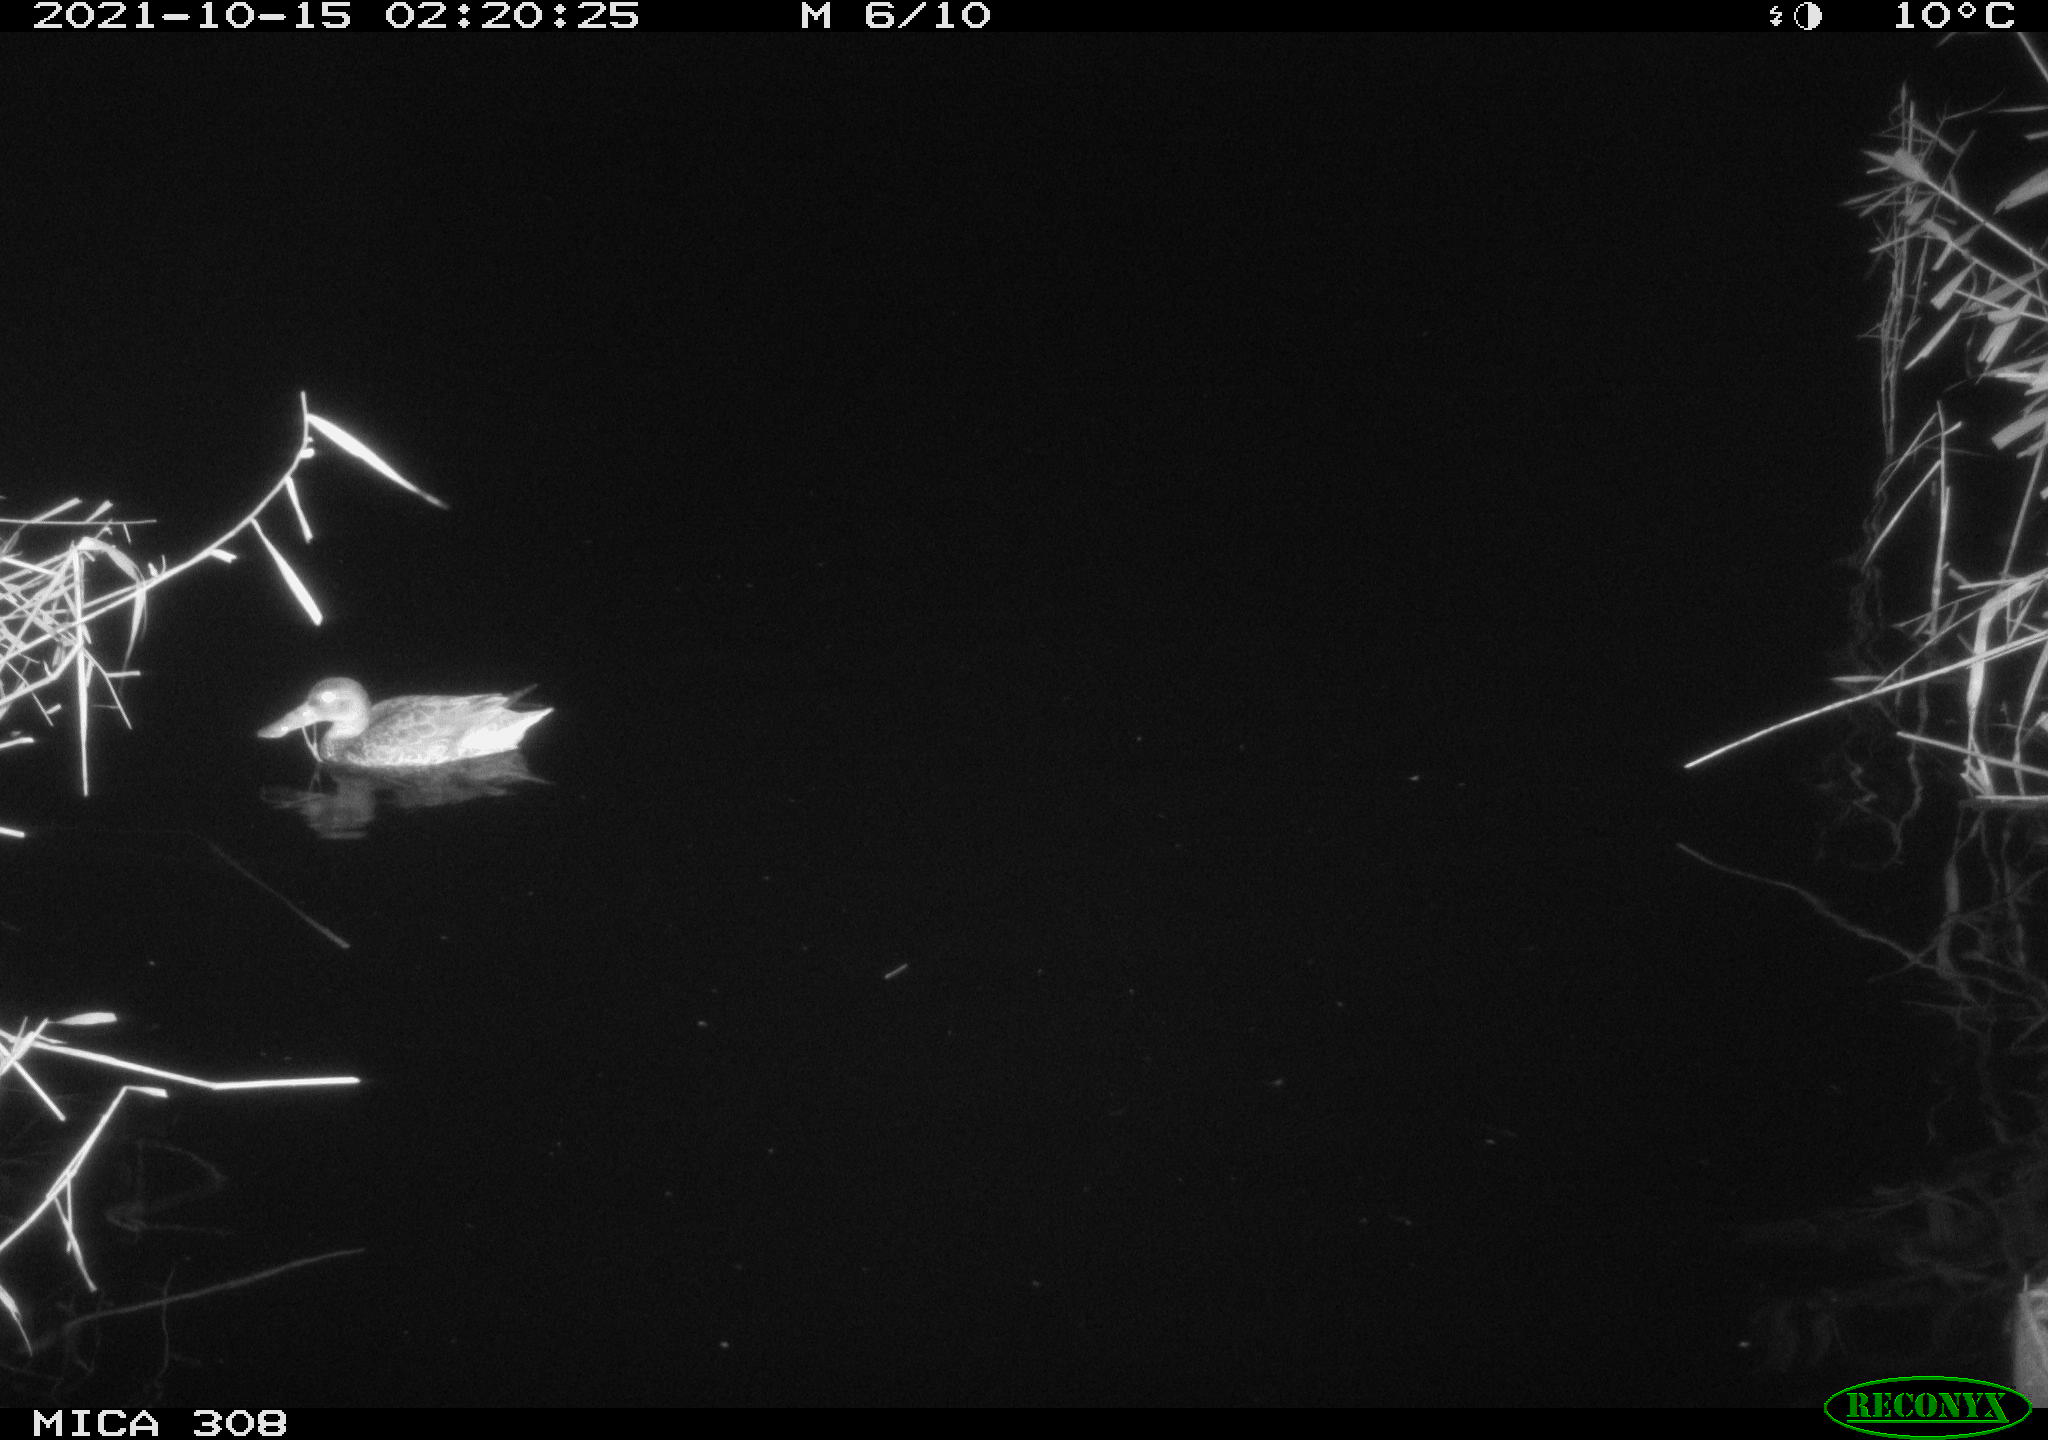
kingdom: Animalia
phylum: Chordata
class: Aves
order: Anseriformes
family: Anatidae
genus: Spatula
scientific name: Spatula clypeata
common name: Northern shoveler
